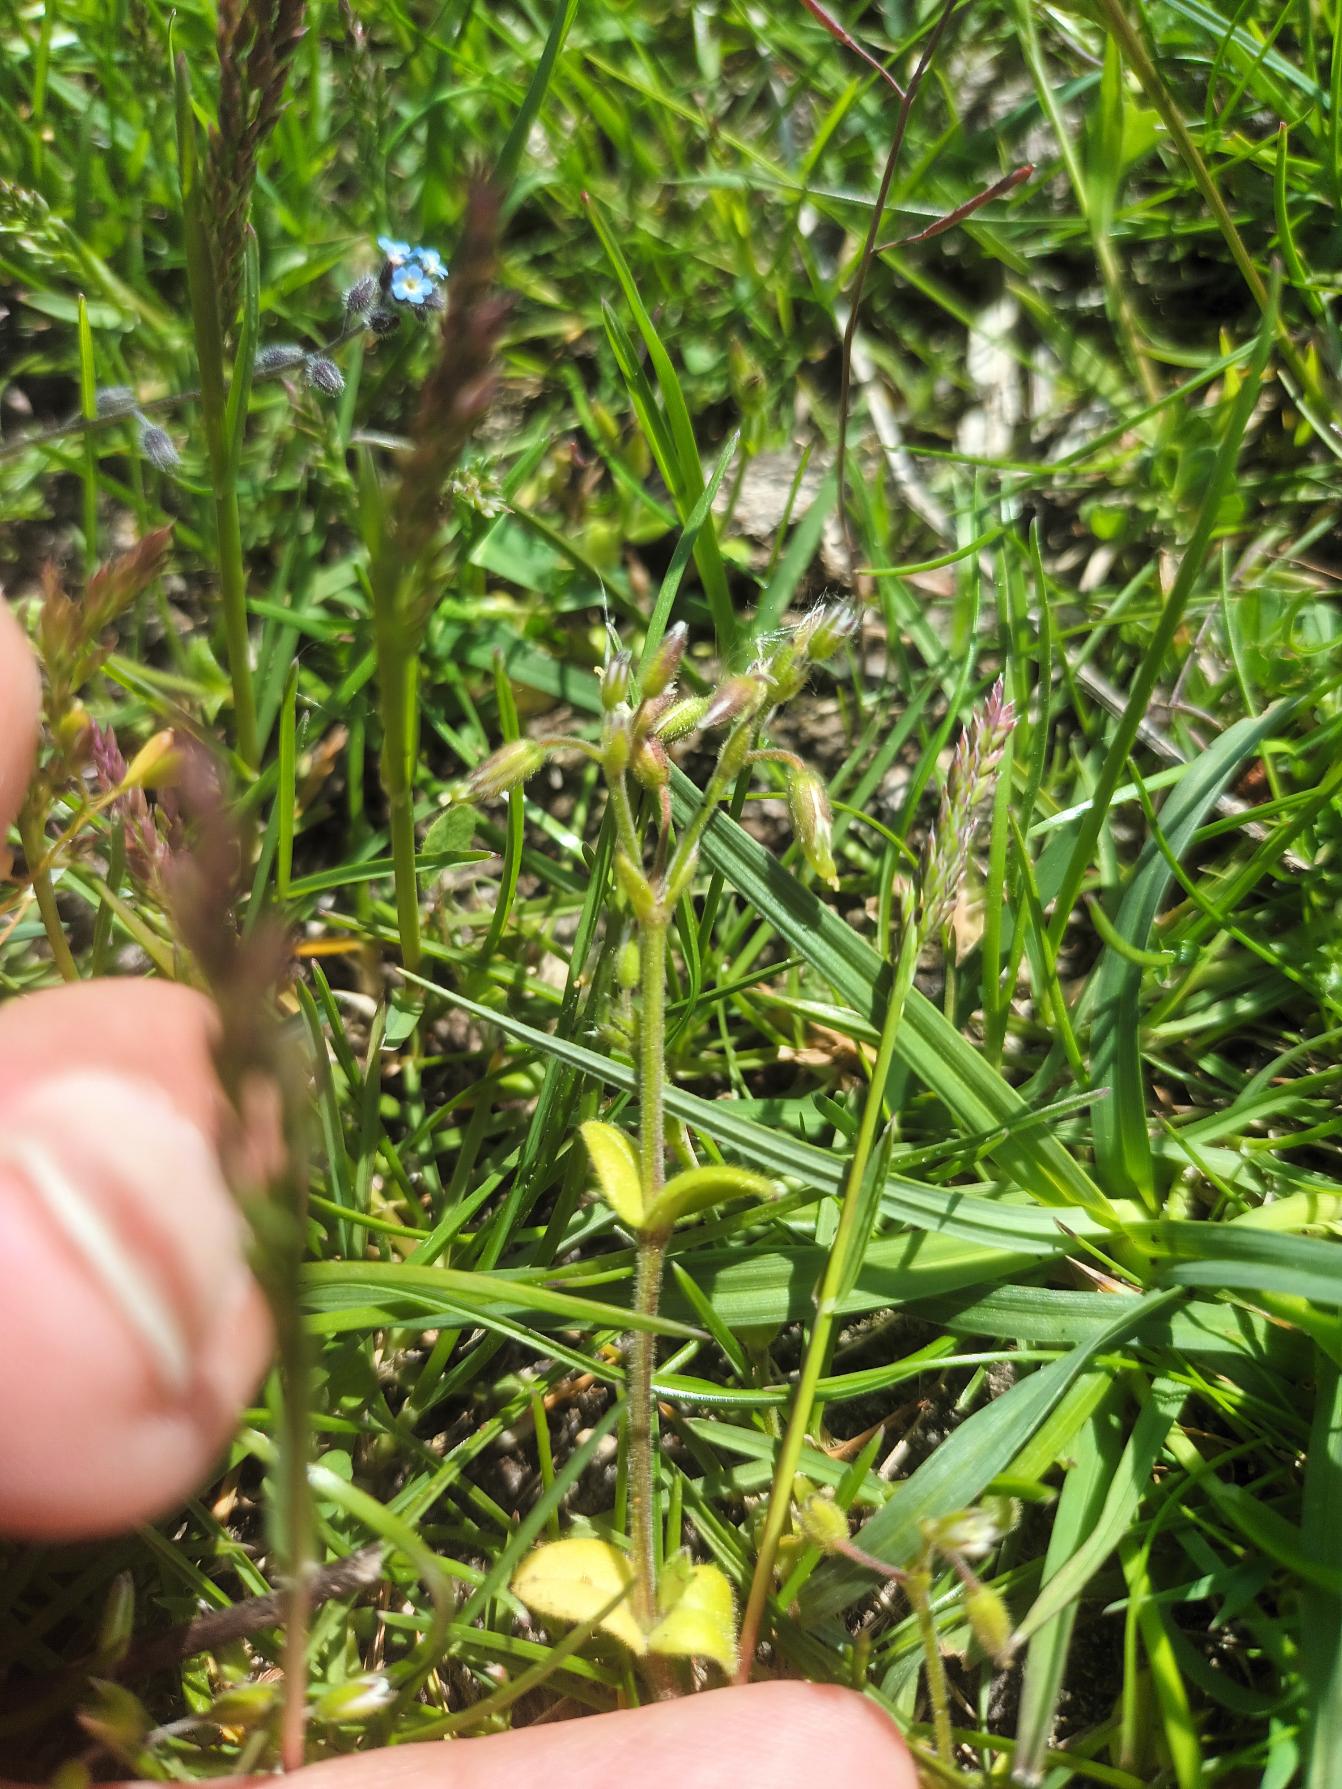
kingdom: Plantae
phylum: Tracheophyta
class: Magnoliopsida
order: Caryophyllales
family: Caryophyllaceae
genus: Cerastium
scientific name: Cerastium subtetrandrum
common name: Øresunds-hønsetarm
